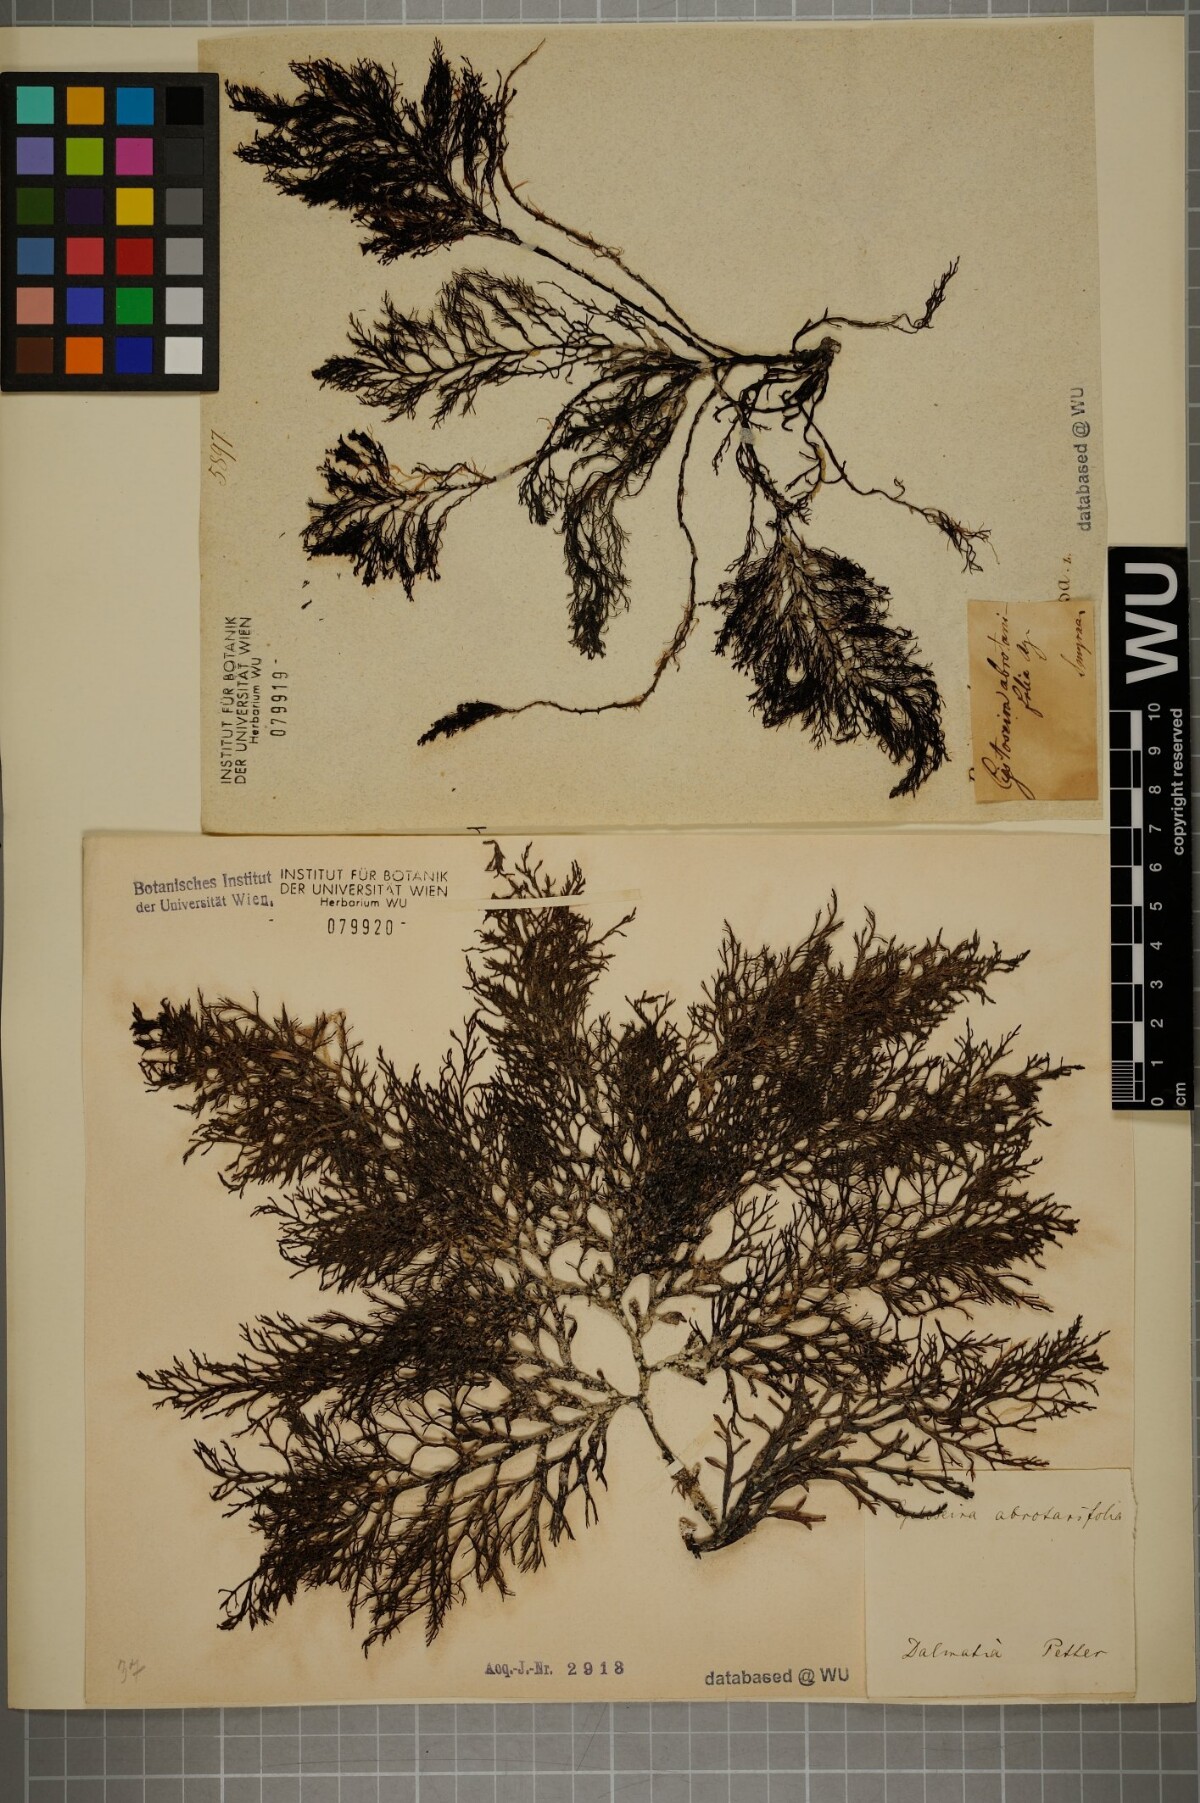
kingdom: Chromista
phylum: Ochrophyta
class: Phaeophyceae
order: Fucales
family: Sargassaceae
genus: Cystoseira
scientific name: Cystoseira foeniculacea
